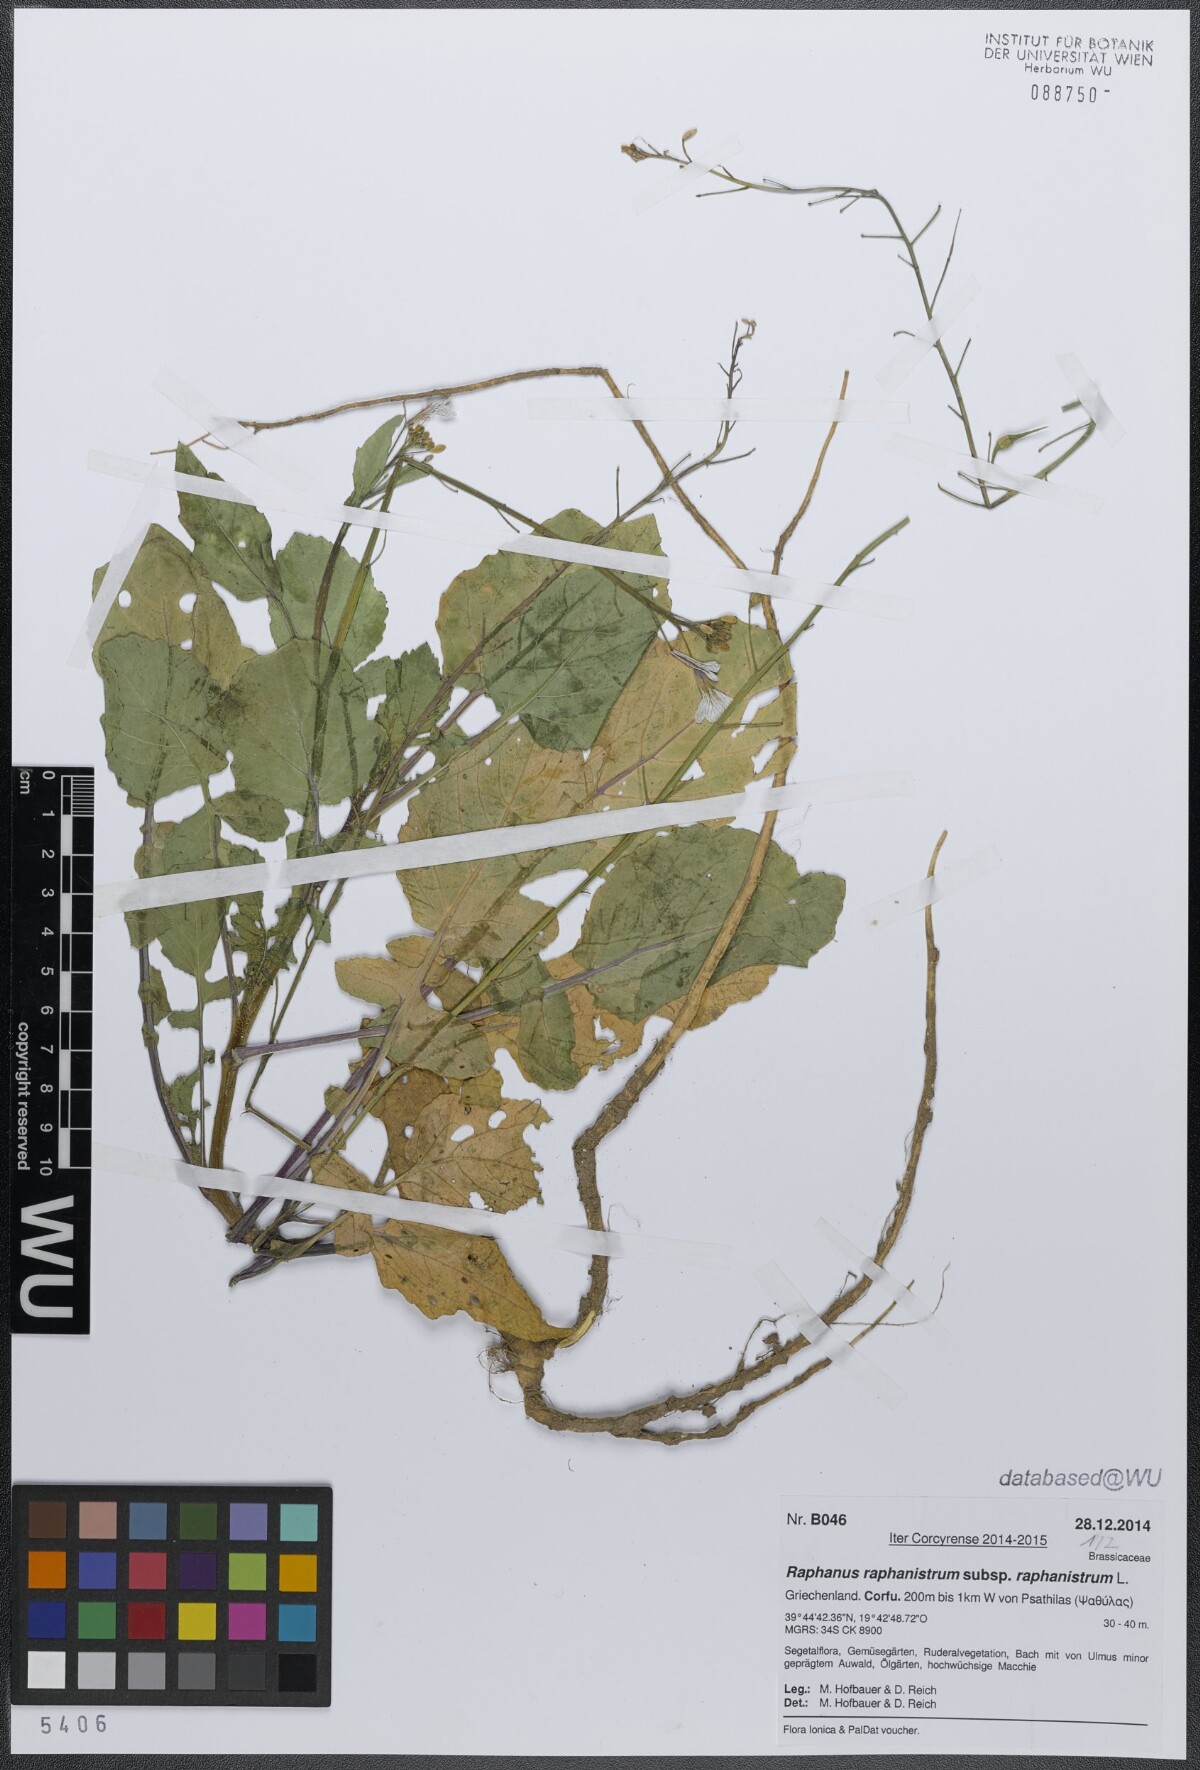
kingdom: Plantae
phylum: Tracheophyta
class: Magnoliopsida
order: Brassicales
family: Brassicaceae
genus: Raphanus
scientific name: Raphanus raphanistrum
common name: Wild radish
